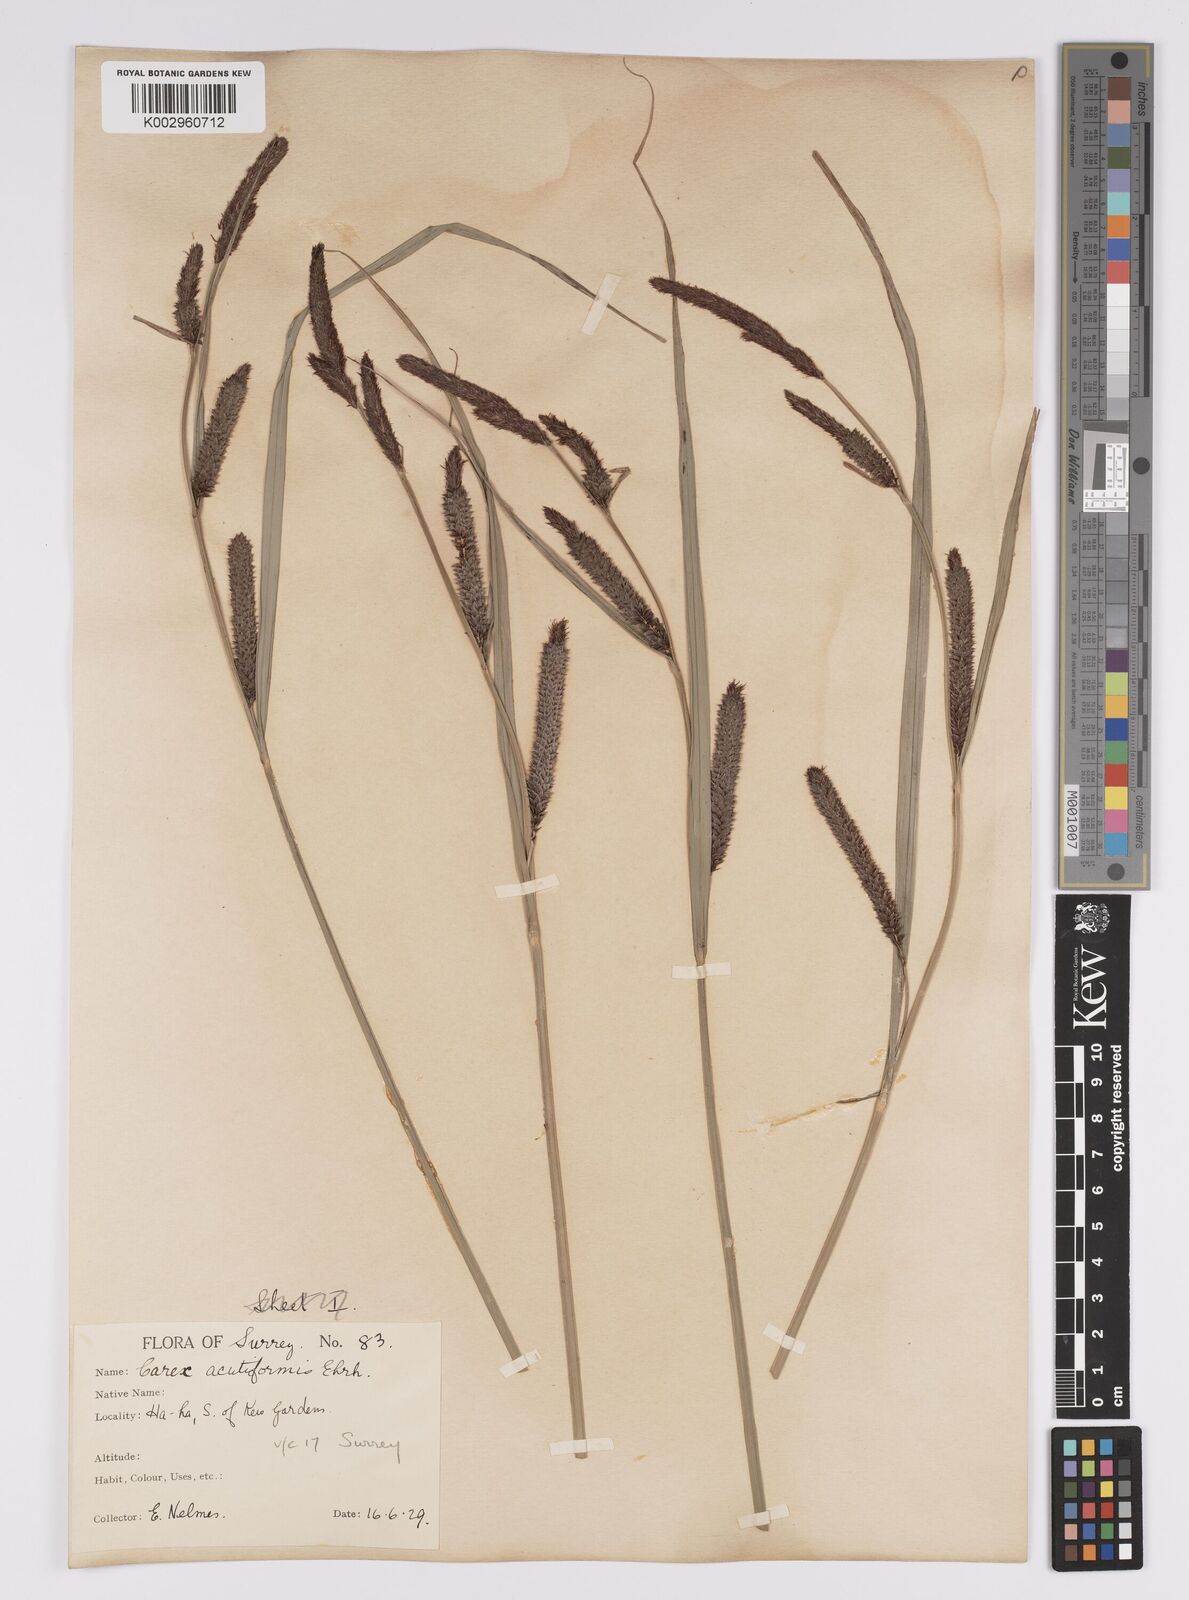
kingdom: Plantae
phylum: Tracheophyta
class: Liliopsida
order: Poales
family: Cyperaceae
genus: Carex
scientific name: Carex acutiformis
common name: Lesser pond-sedge
